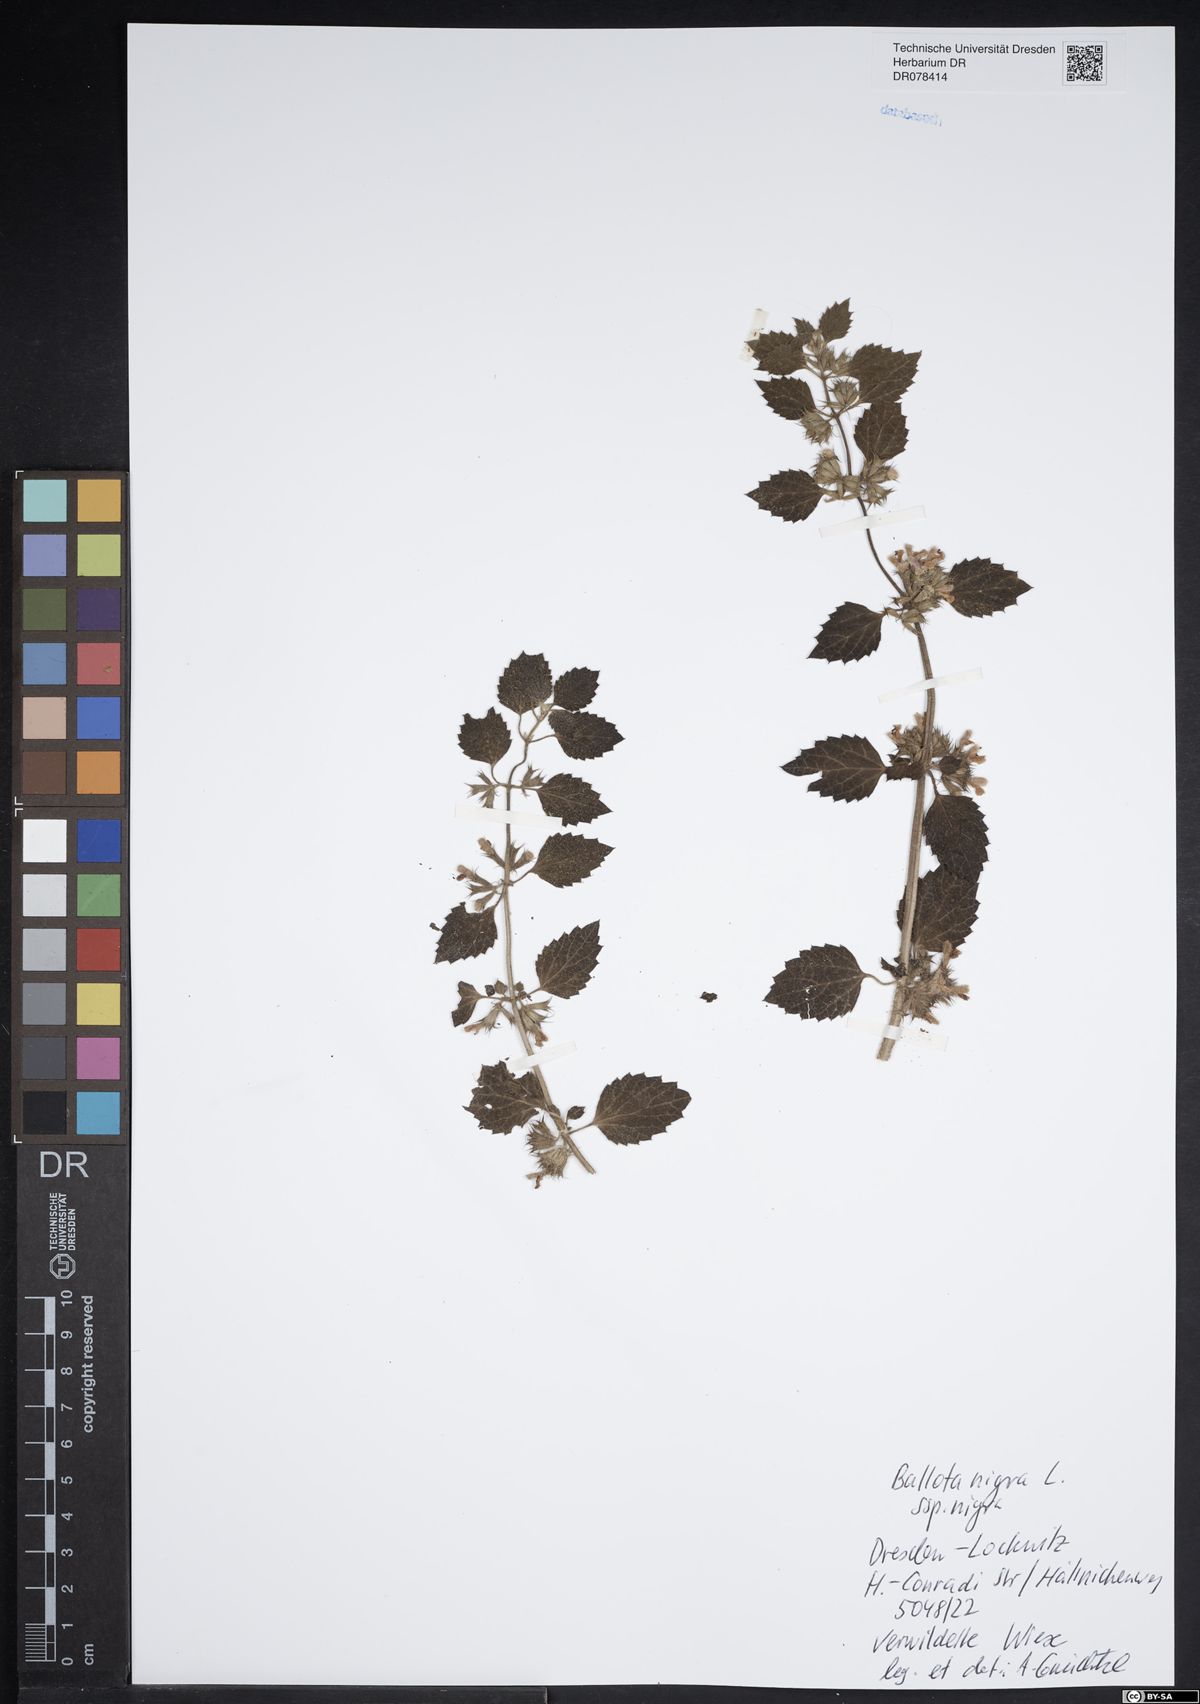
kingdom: Plantae
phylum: Tracheophyta
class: Magnoliopsida
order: Lamiales
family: Lamiaceae
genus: Ballota
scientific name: Ballota nigra
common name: Black horehound
